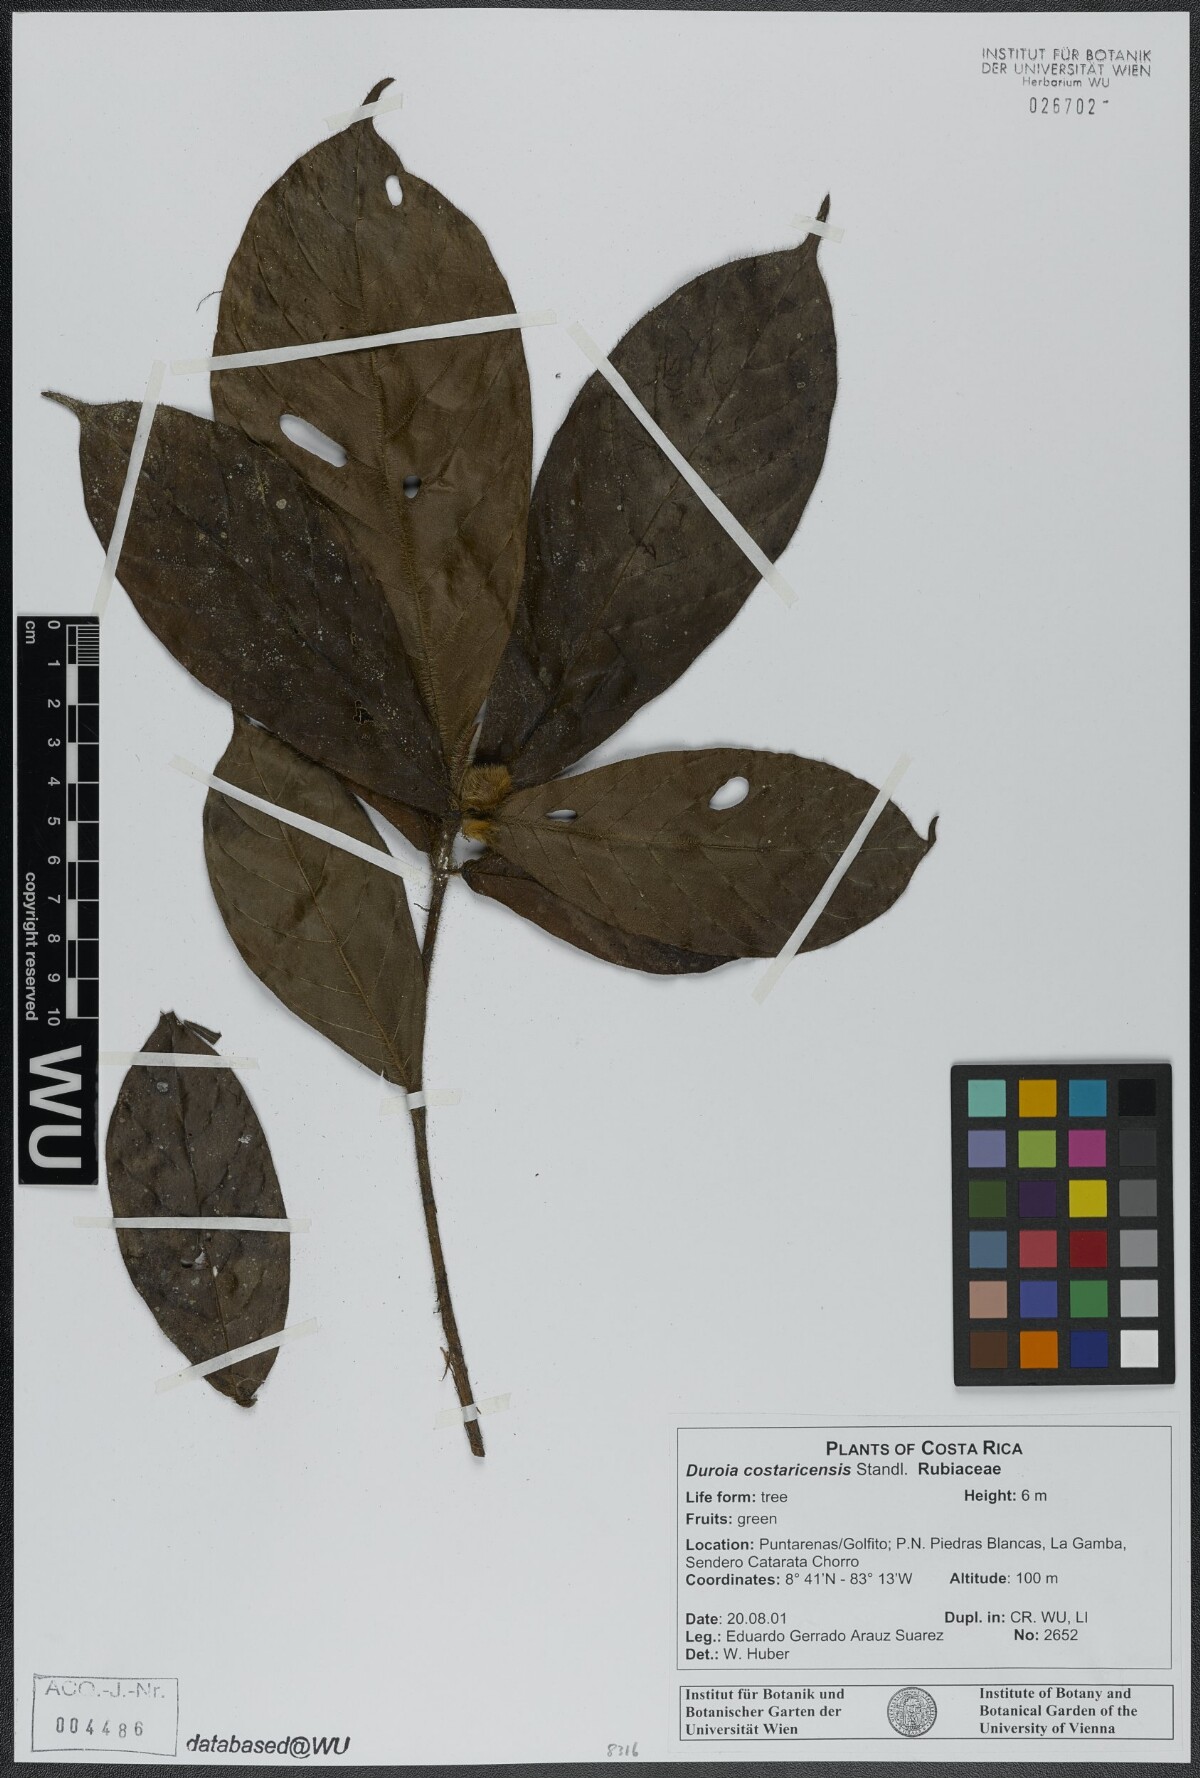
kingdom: Plantae
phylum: Tracheophyta
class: Magnoliopsida
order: Gentianales
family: Rubiaceae
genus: Duroia
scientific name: Duroia costaricensis
